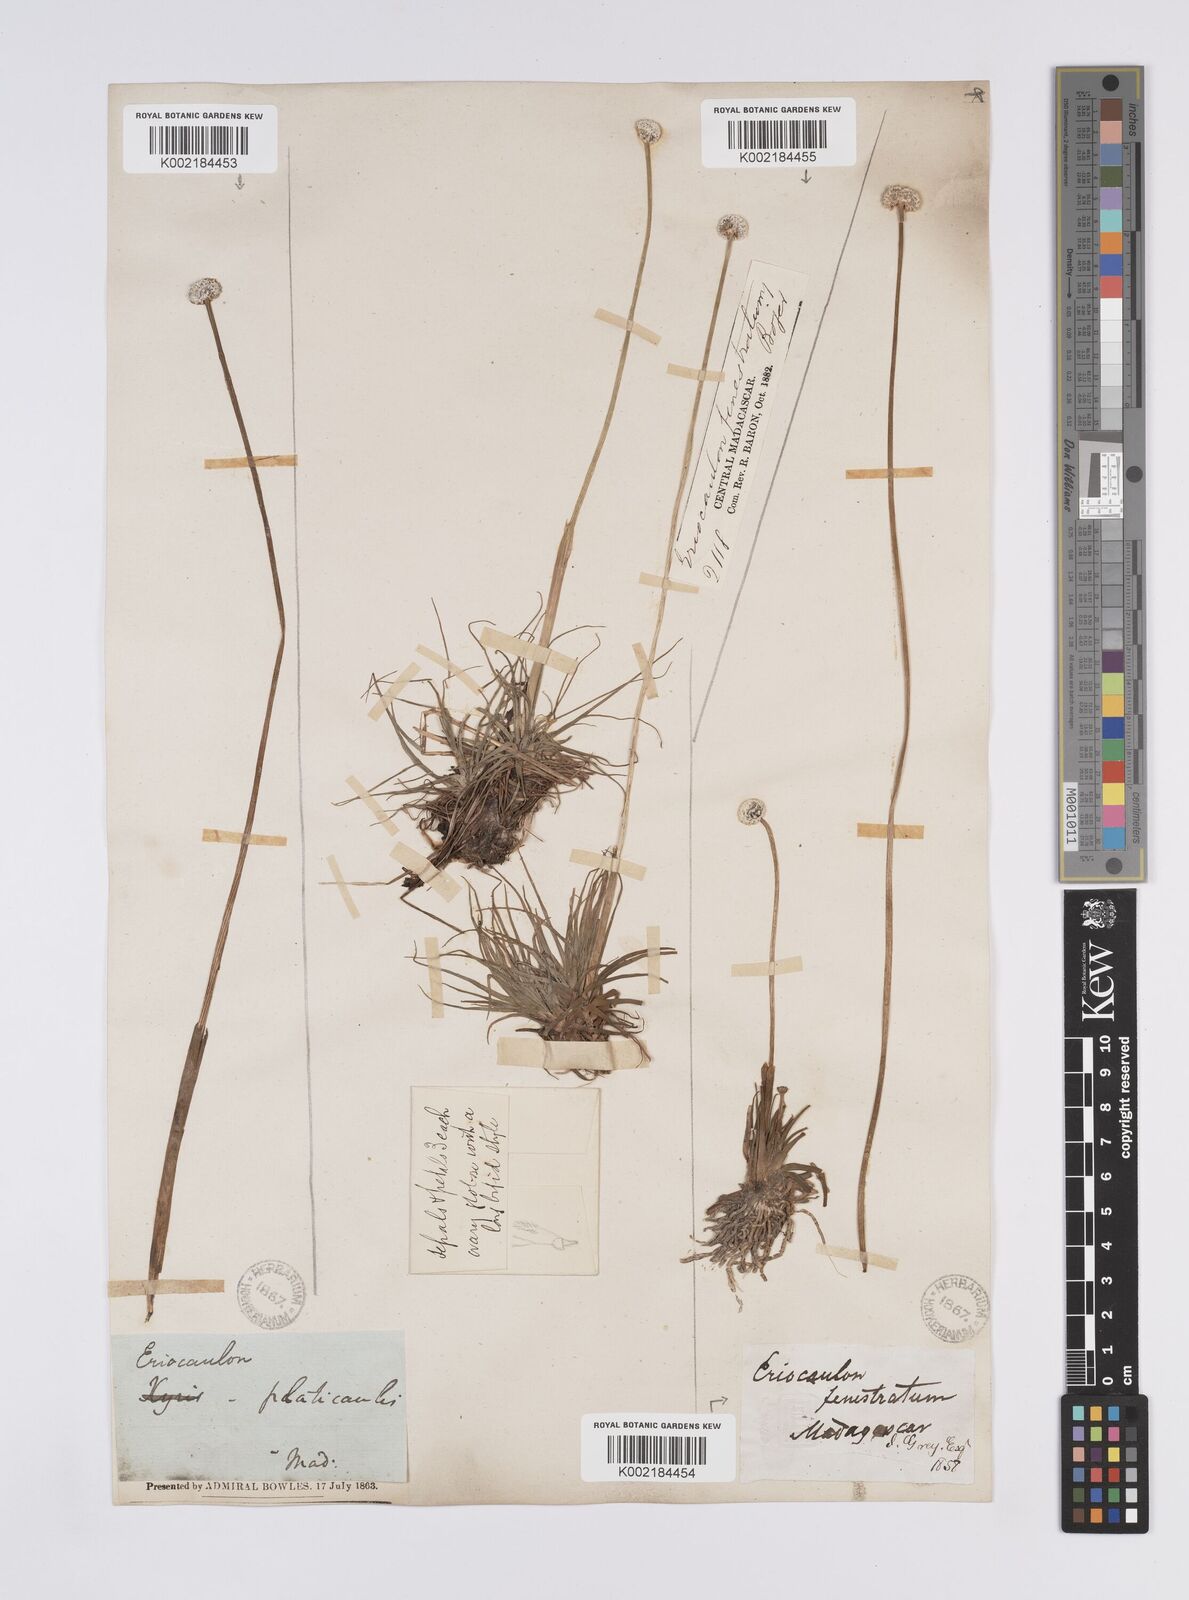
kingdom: Plantae
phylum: Tracheophyta
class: Liliopsida
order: Poales
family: Eriocaulaceae
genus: Eriocaulon
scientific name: Eriocaulon fenestratum
